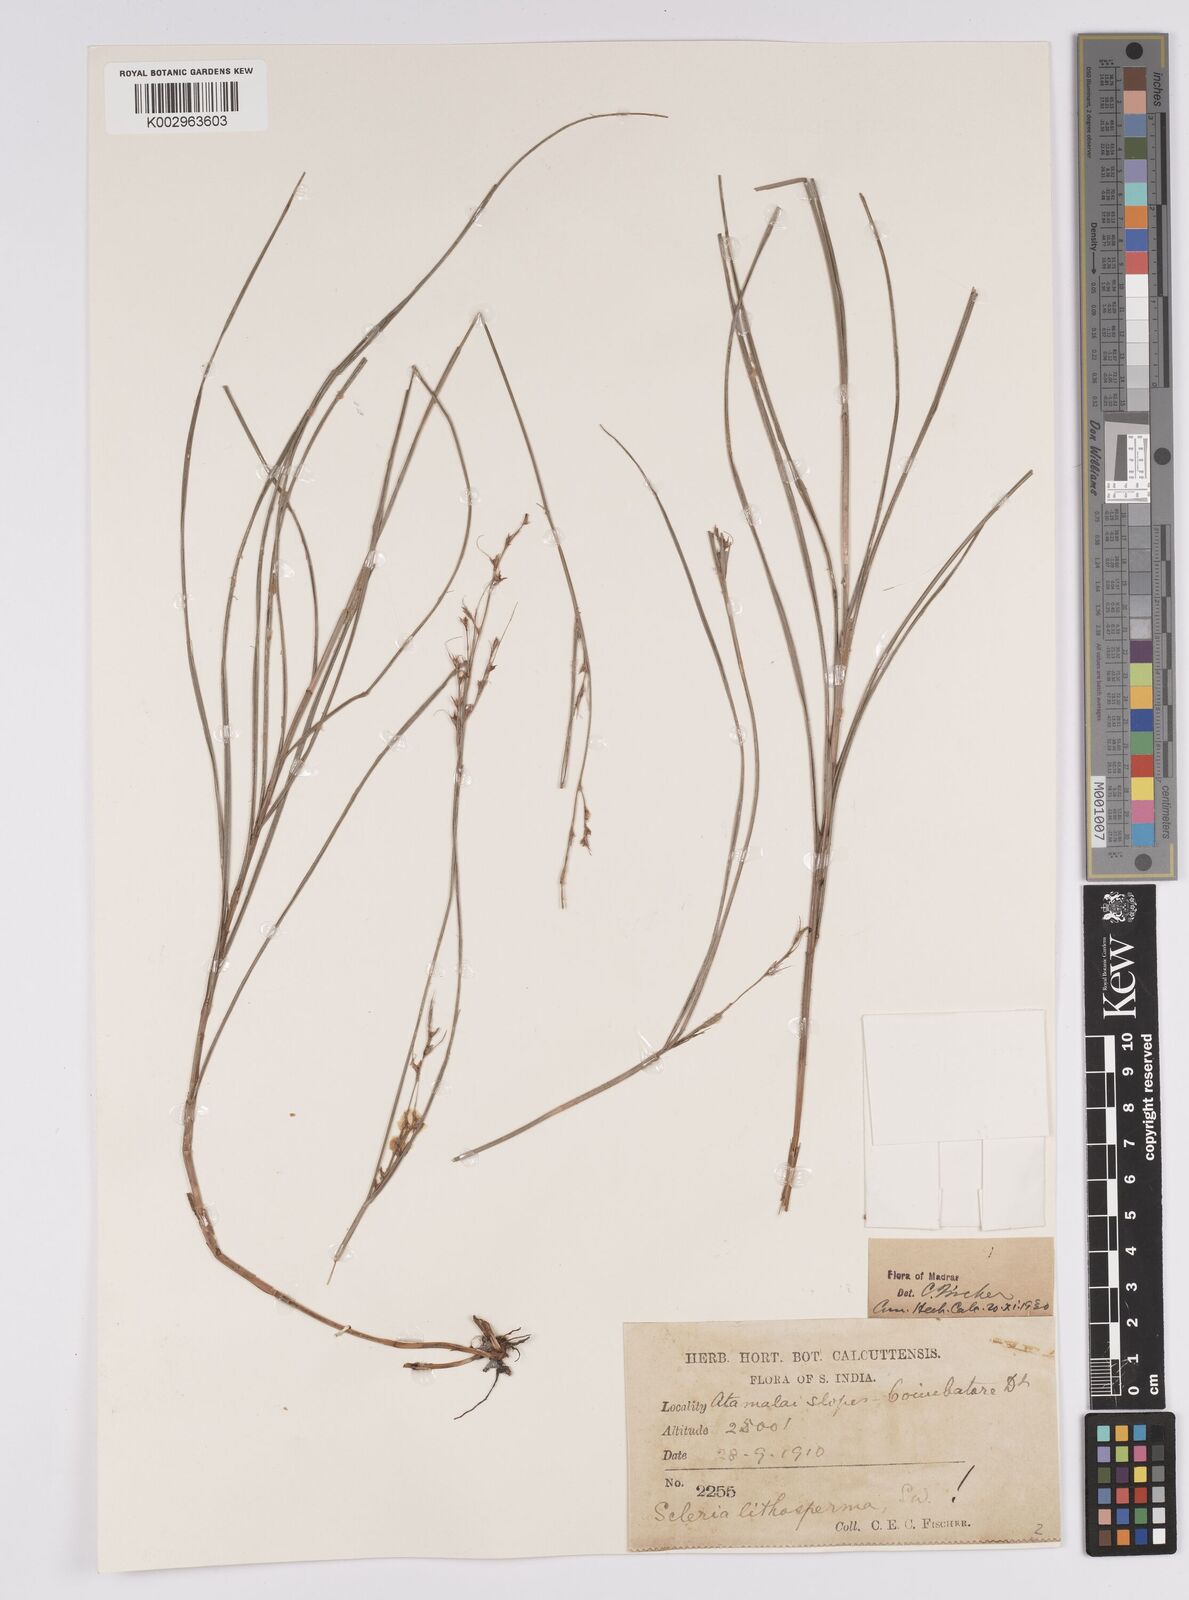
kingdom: Plantae
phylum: Tracheophyta
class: Liliopsida
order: Poales
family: Cyperaceae
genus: Scleria
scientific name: Scleria lithosperma
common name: Florida keys nut-rush
